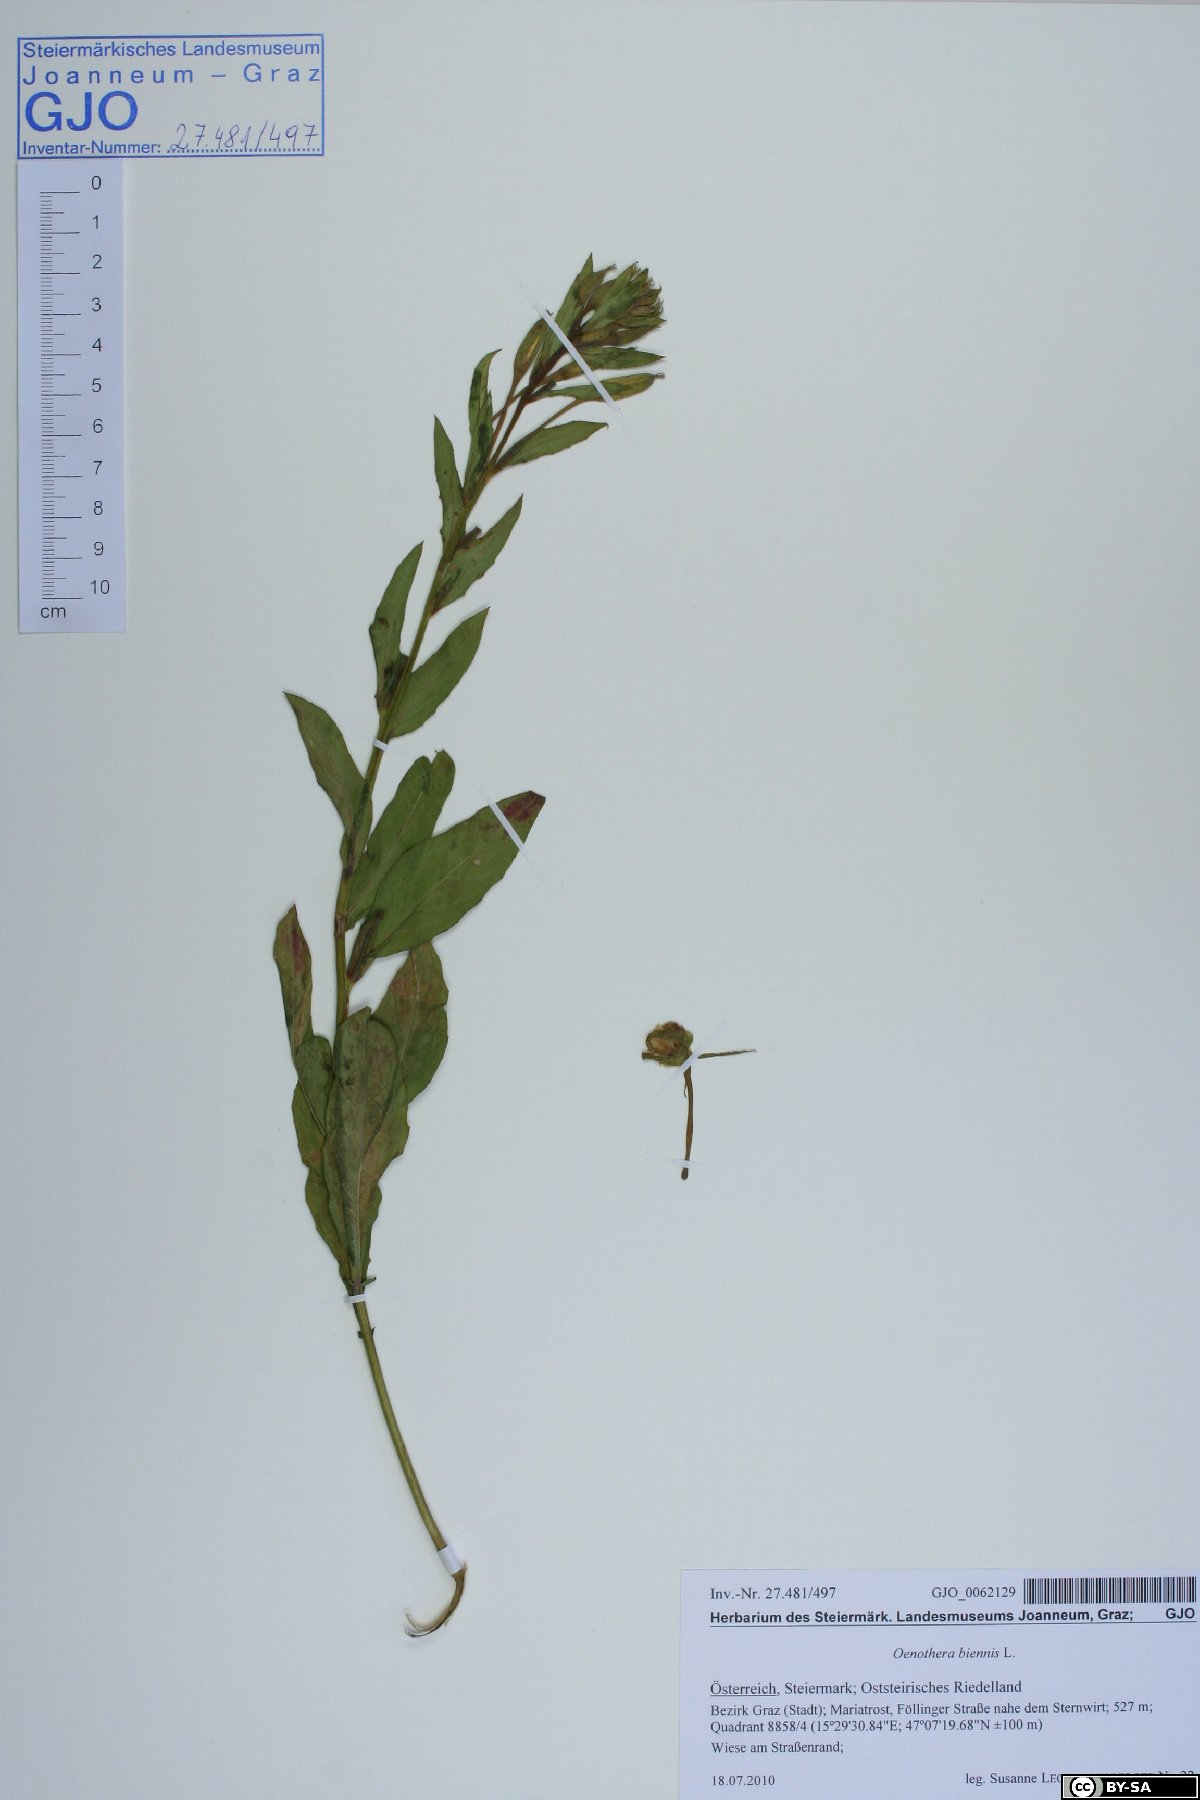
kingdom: Plantae
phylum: Tracheophyta
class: Magnoliopsida
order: Myrtales
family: Onagraceae
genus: Oenothera
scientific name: Oenothera biennis
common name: Common evening-primrose
